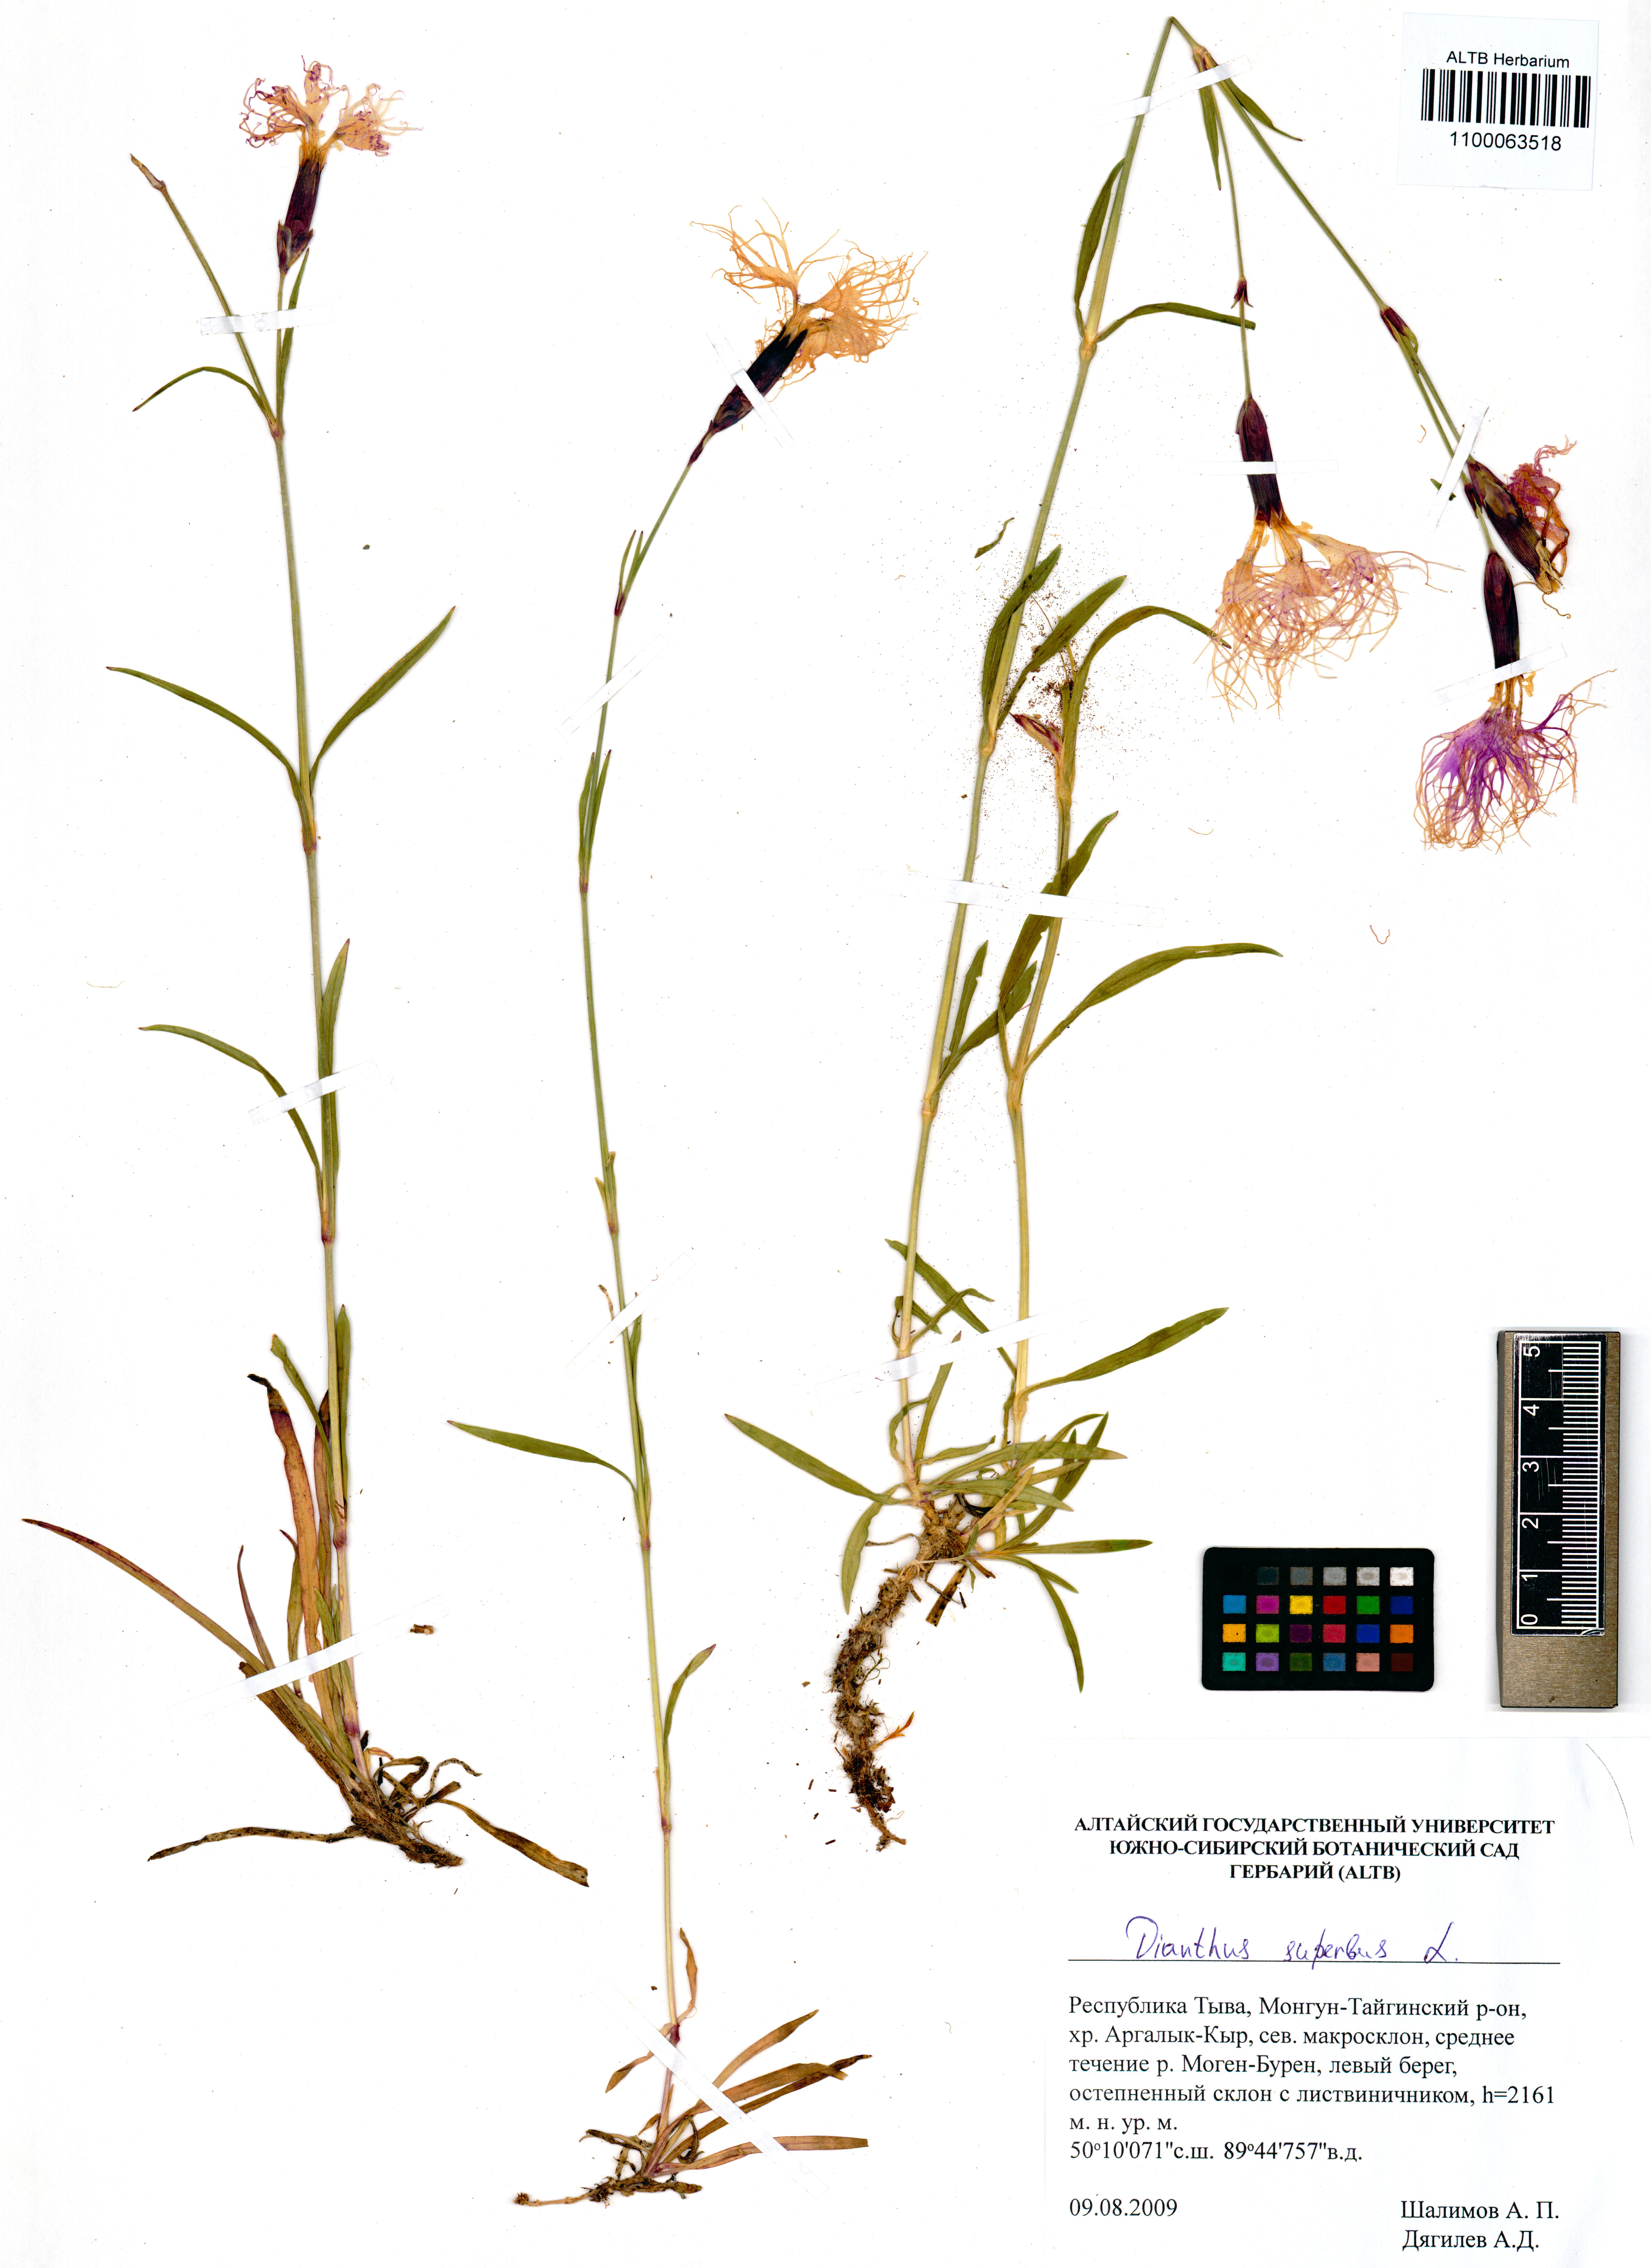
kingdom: Plantae
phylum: Tracheophyta
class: Magnoliopsida
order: Caryophyllales
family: Caryophyllaceae
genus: Dianthus
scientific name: Dianthus superbus
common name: Fringed pink
